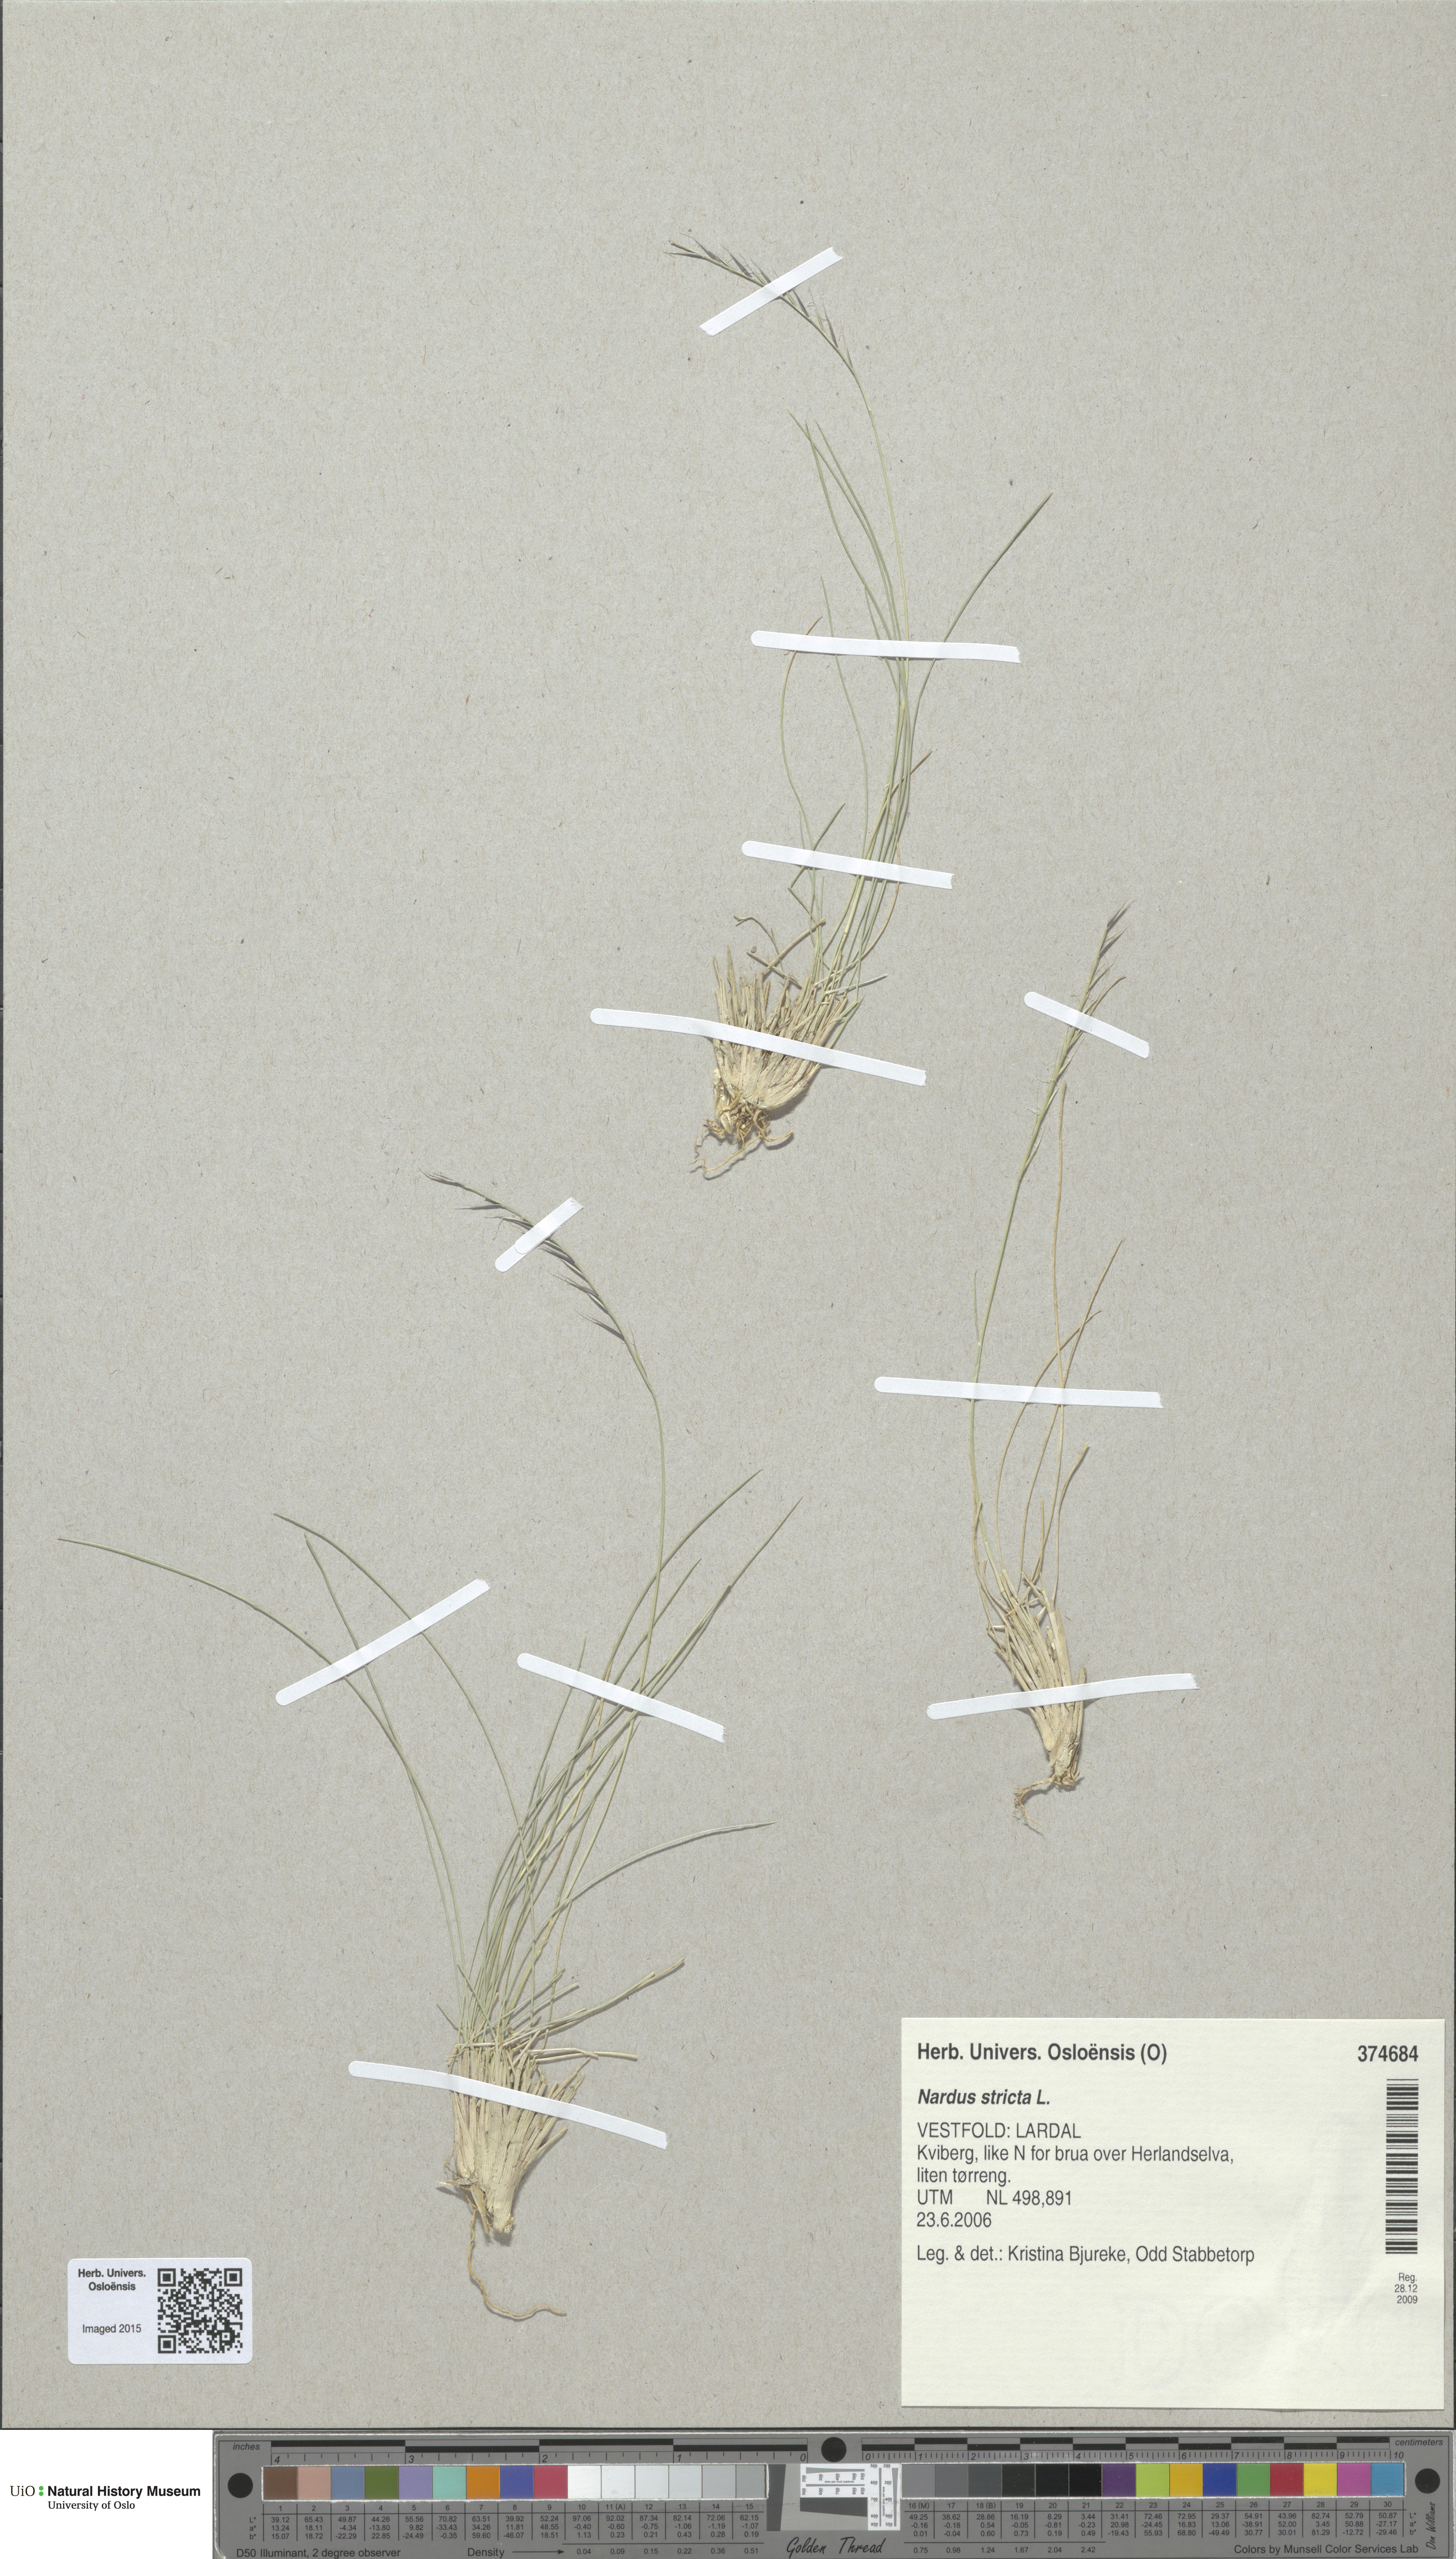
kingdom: Plantae
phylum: Tracheophyta
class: Liliopsida
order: Poales
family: Poaceae
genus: Nardus
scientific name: Nardus stricta
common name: Mat-grass
